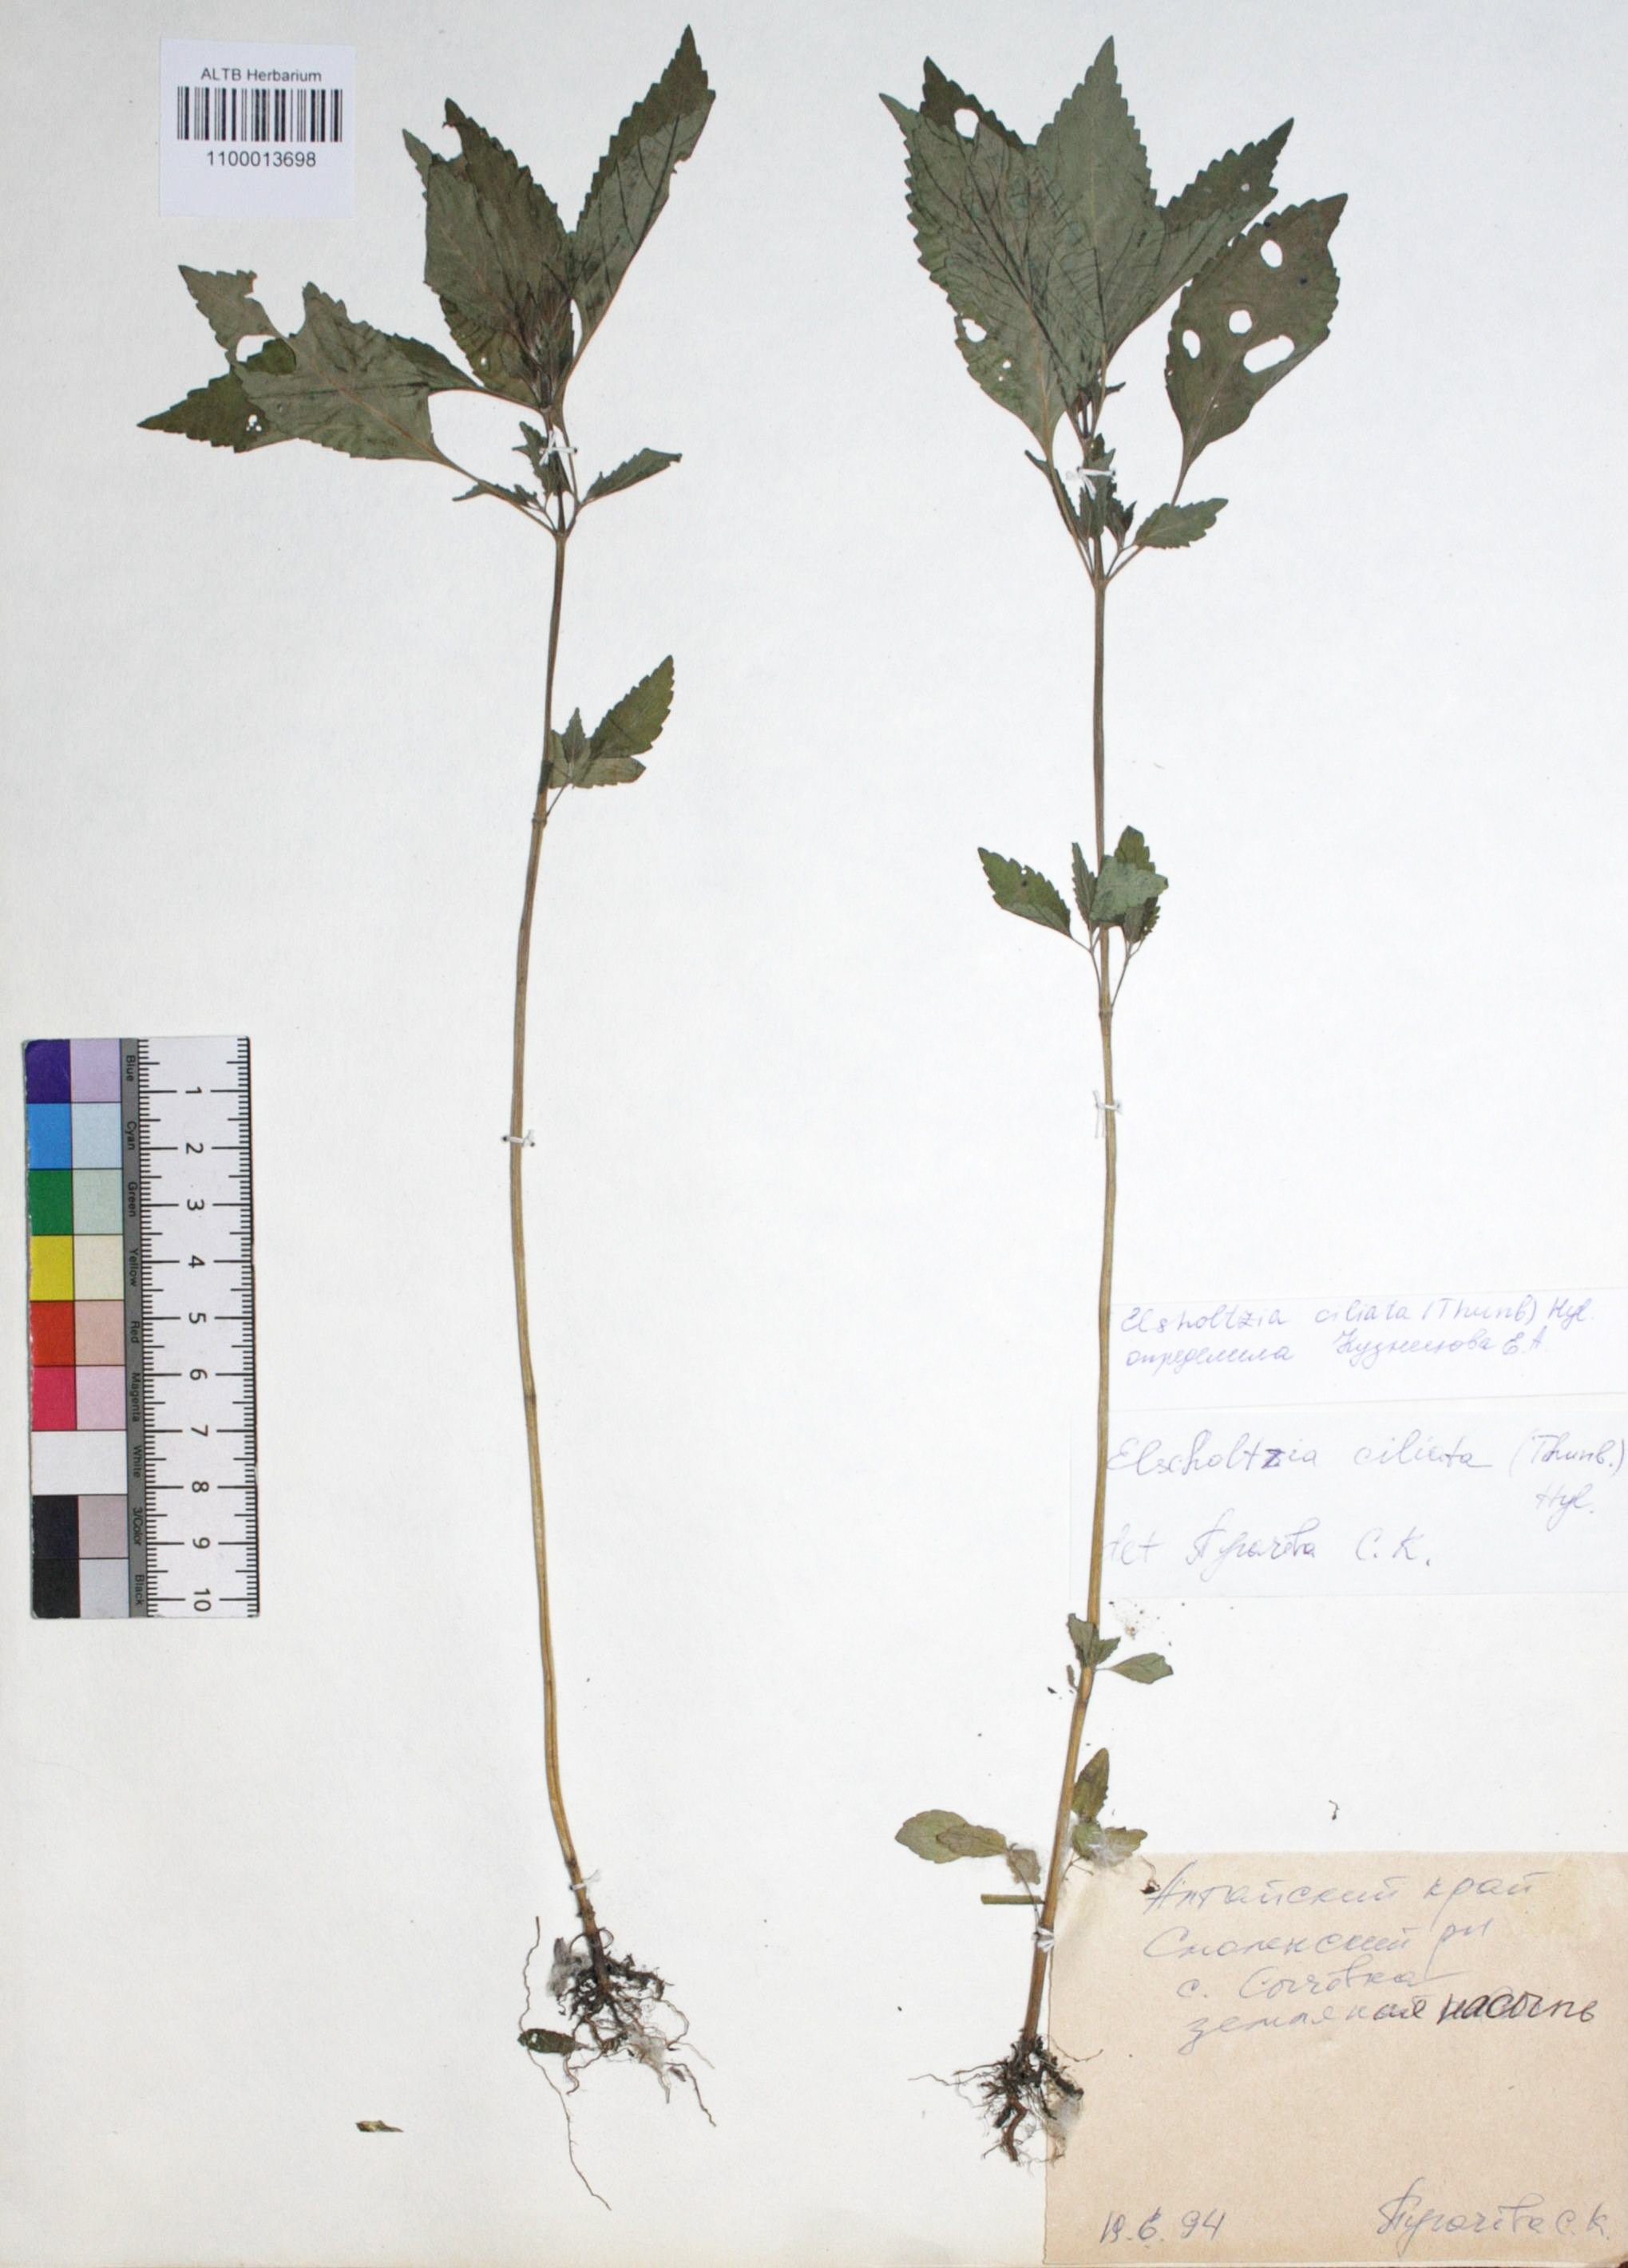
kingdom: Plantae
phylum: Tracheophyta
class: Magnoliopsida
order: Lamiales
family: Lamiaceae
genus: Elsholtzia
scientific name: Elsholtzia ciliata
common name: Ciliate elsholtzia
